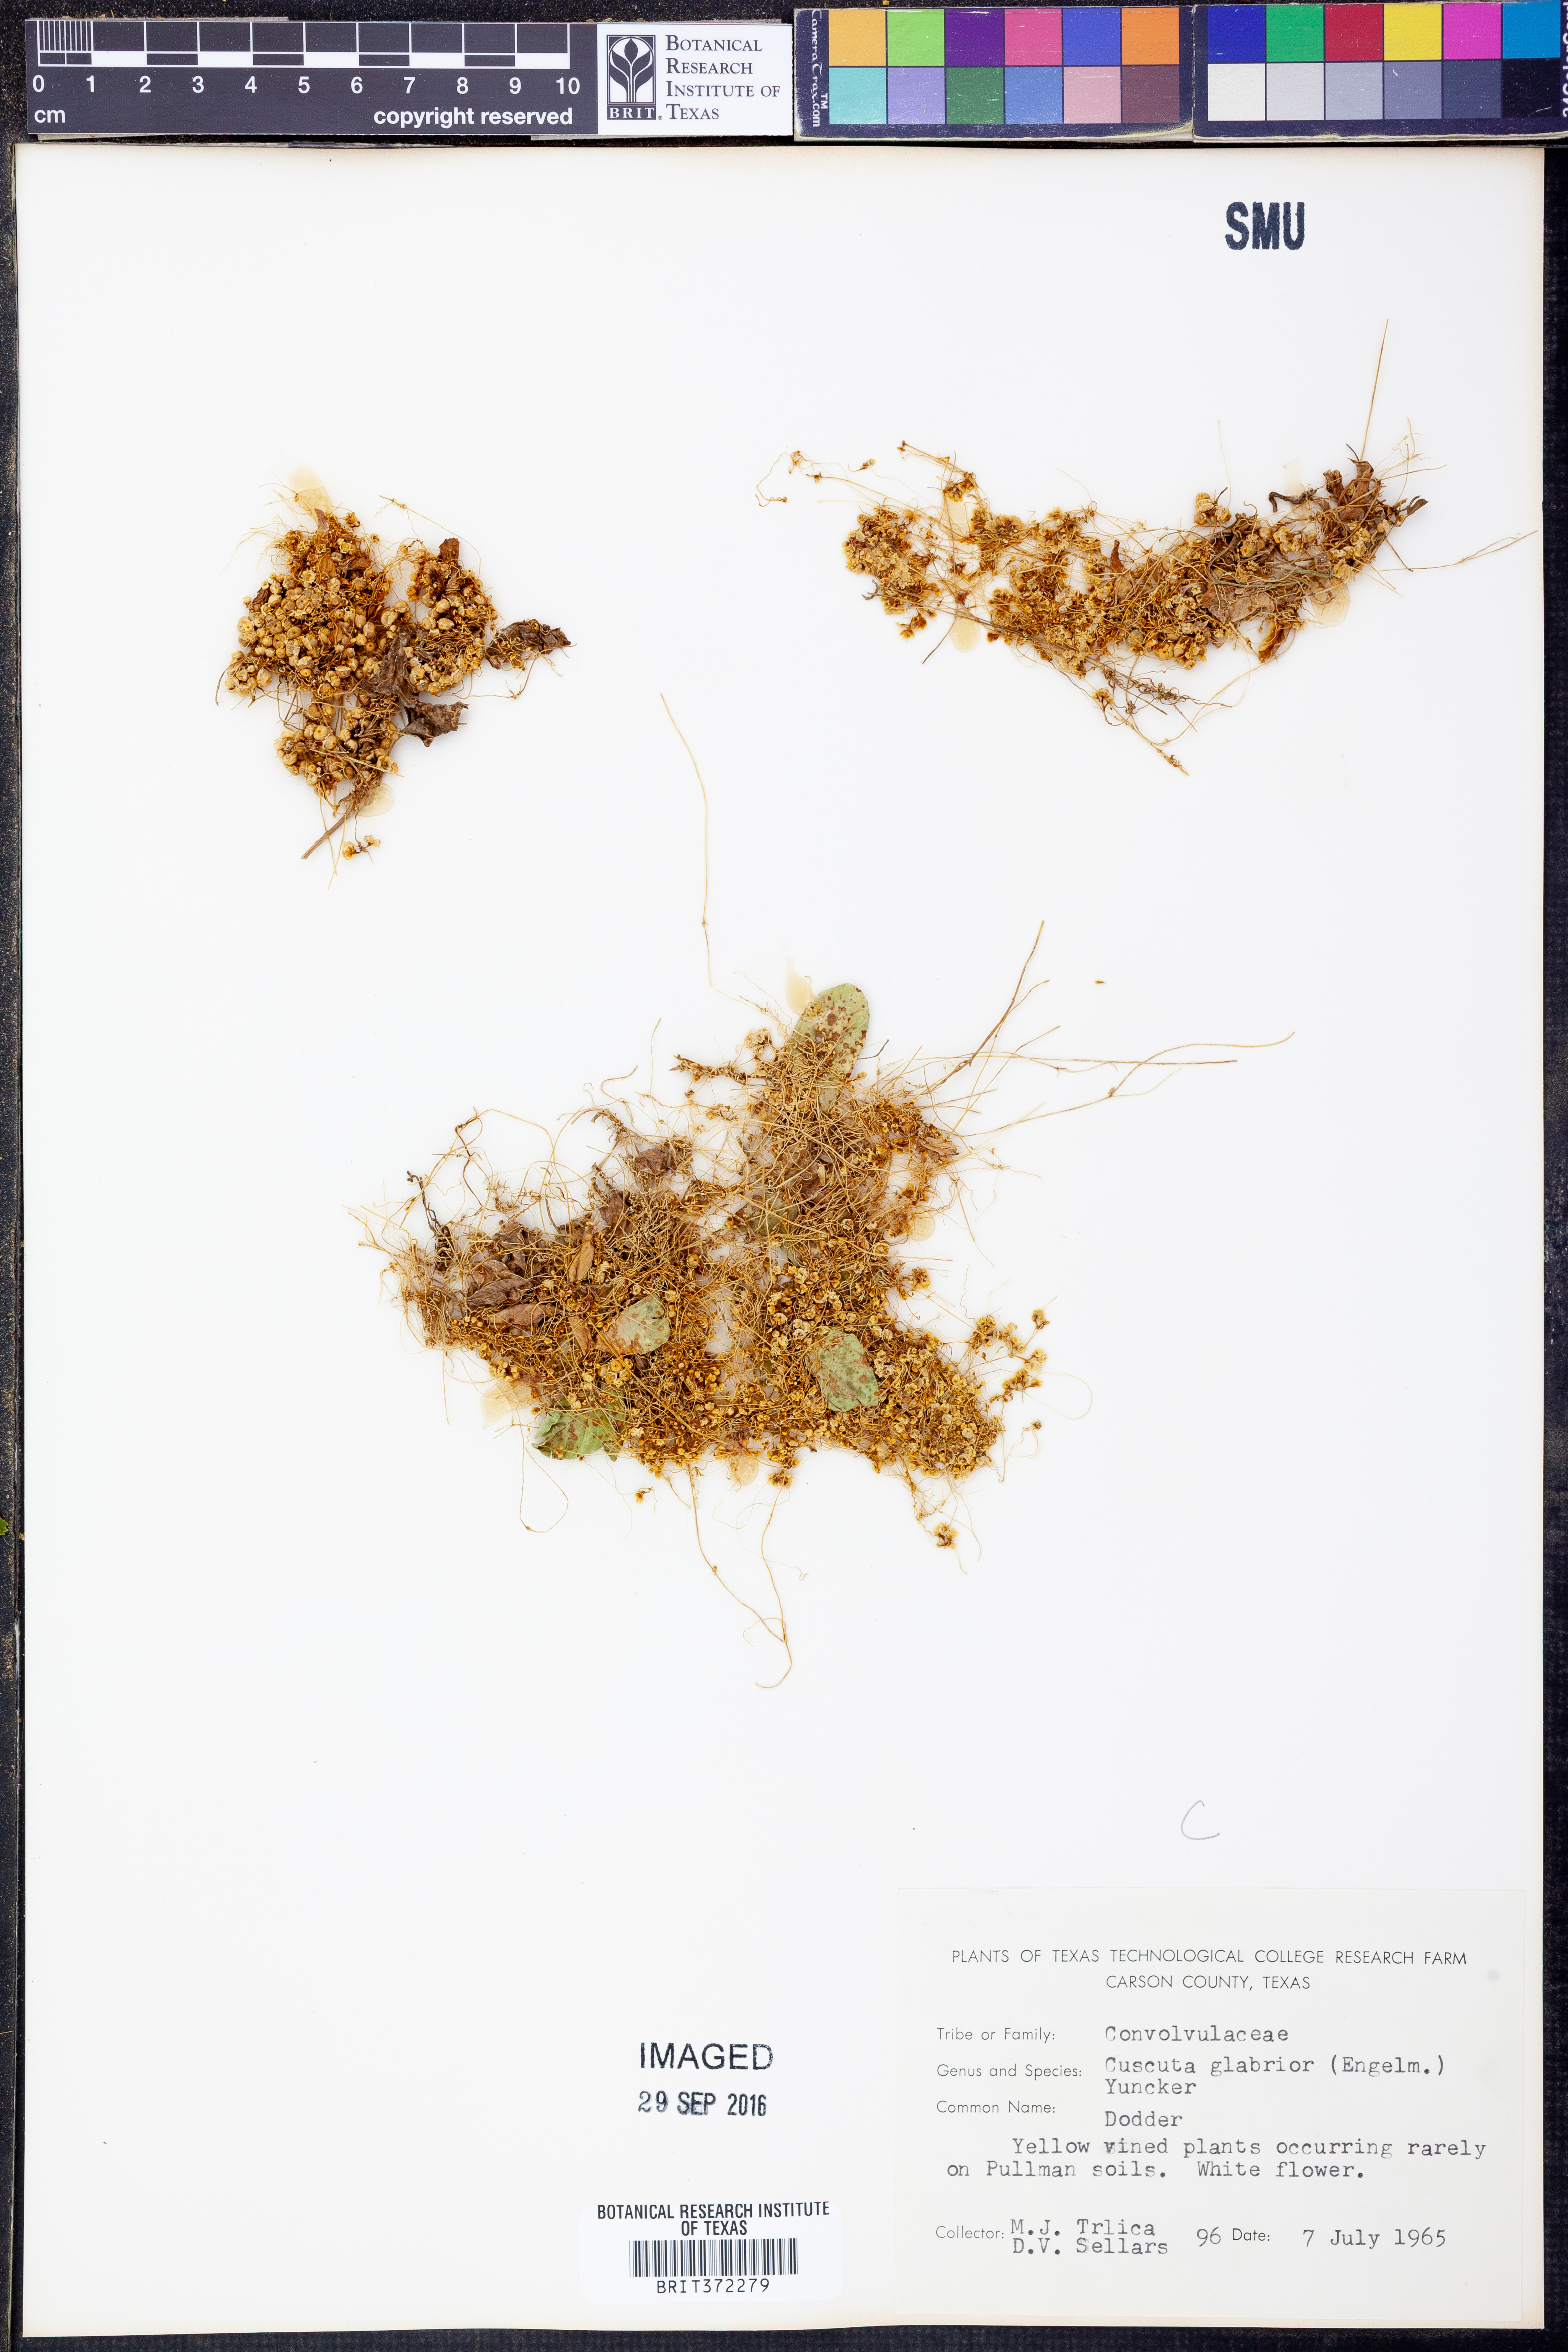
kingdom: Plantae
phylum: Tracheophyta
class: Magnoliopsida
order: Solanales
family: Convolvulaceae
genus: Cuscuta
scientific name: Cuscuta glabrior
